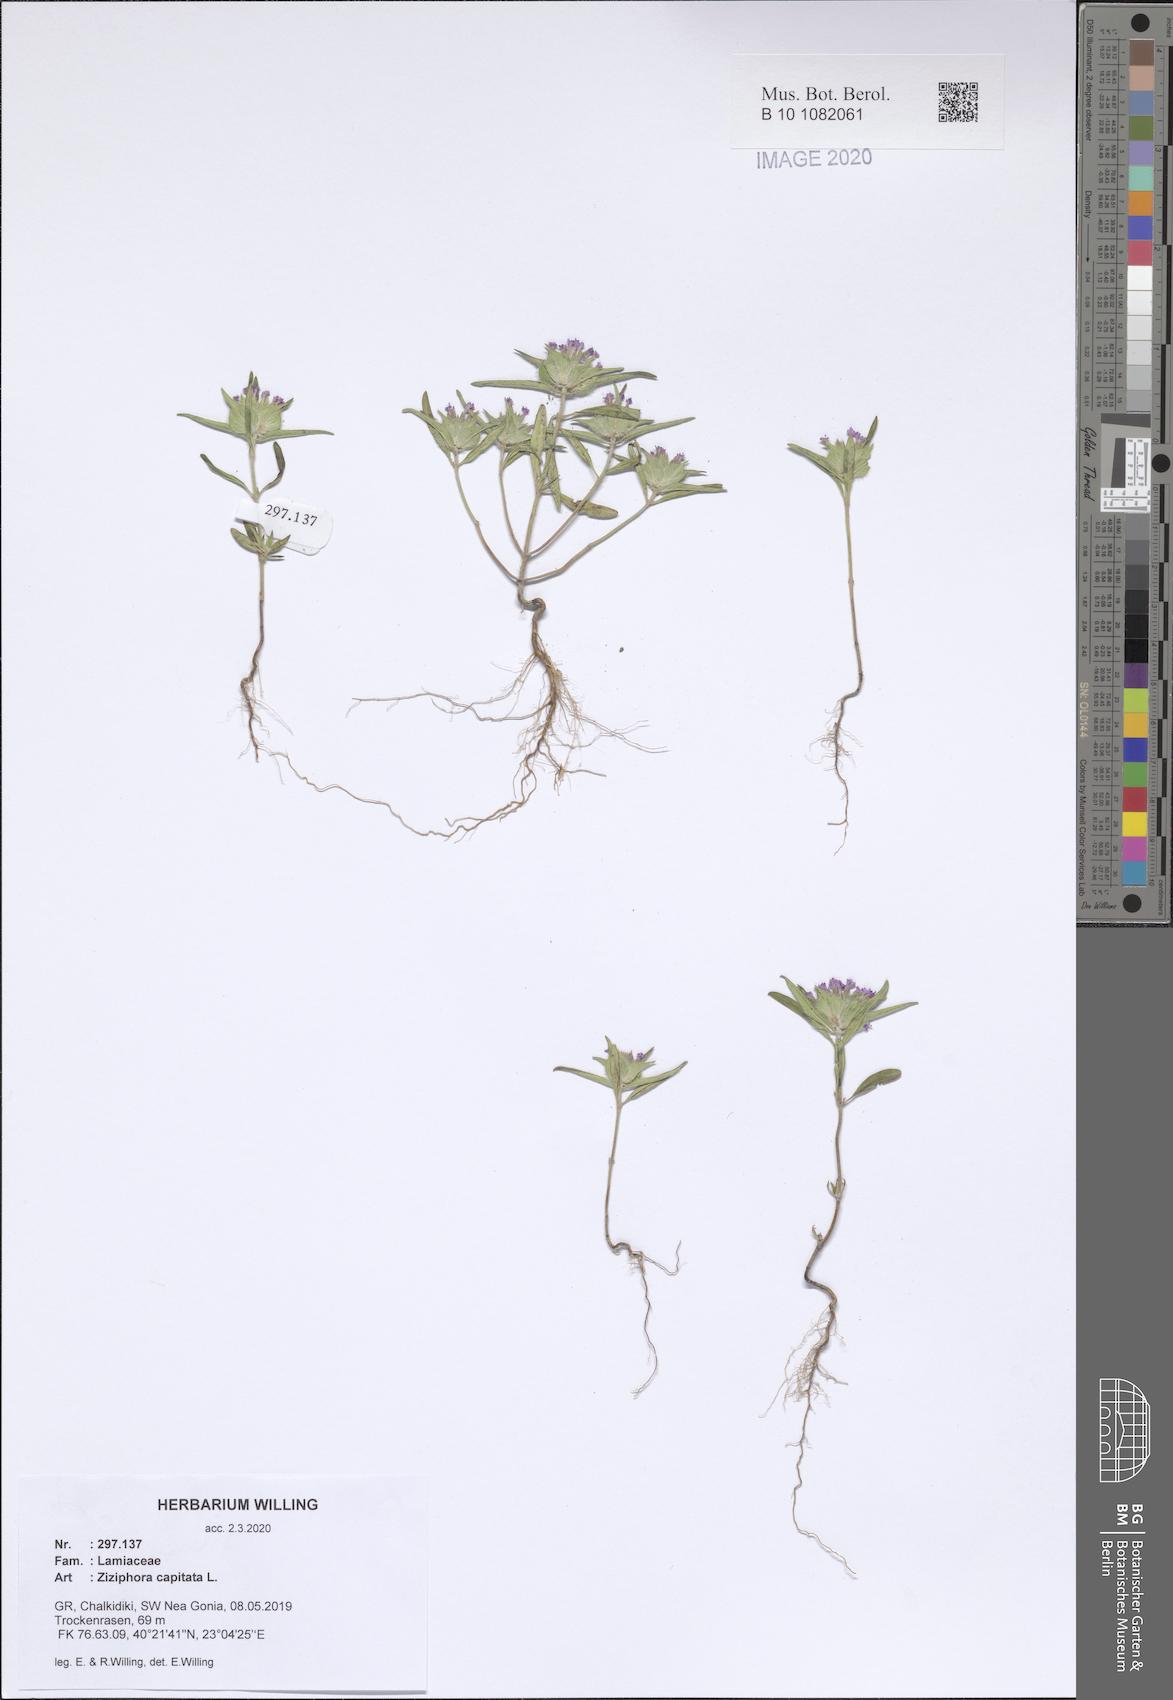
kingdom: Plantae
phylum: Tracheophyta
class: Magnoliopsida
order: Lamiales
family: Lamiaceae
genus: Ziziphora
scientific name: Ziziphora capitata
